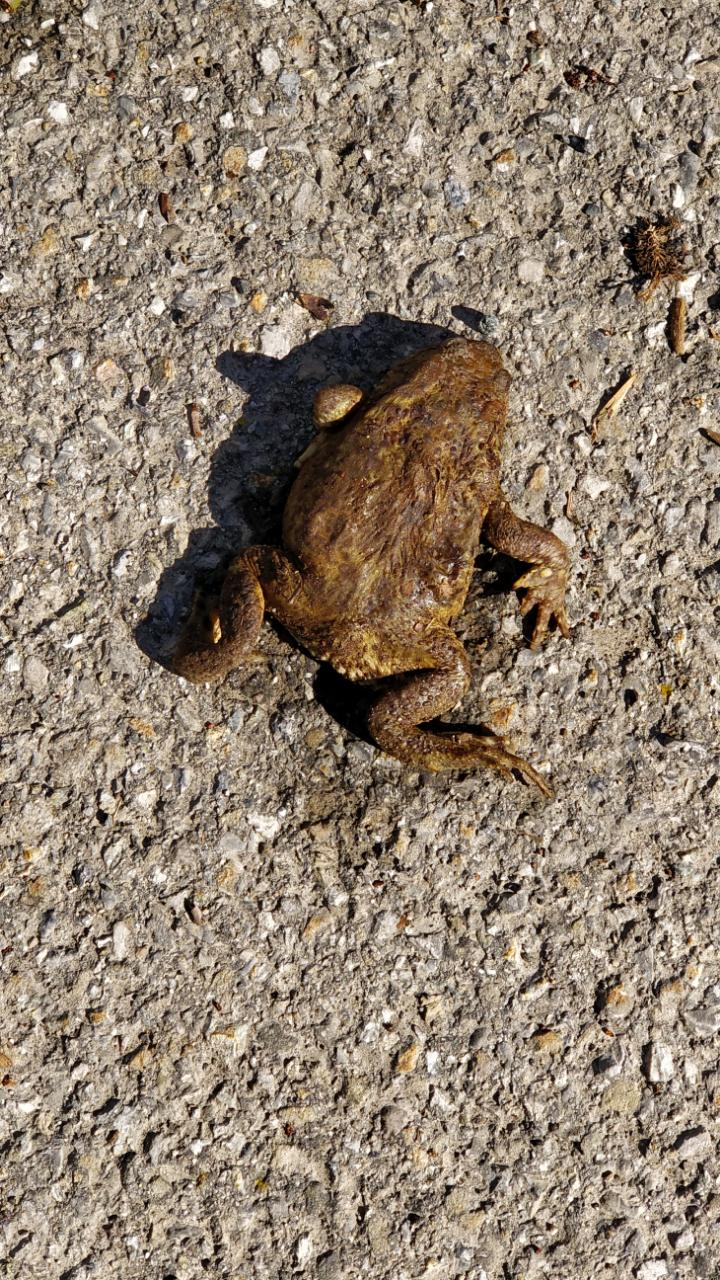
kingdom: Animalia
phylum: Chordata
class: Amphibia
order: Anura
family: Bufonidae
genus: Bufo
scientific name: Bufo bufo
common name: Common toad
